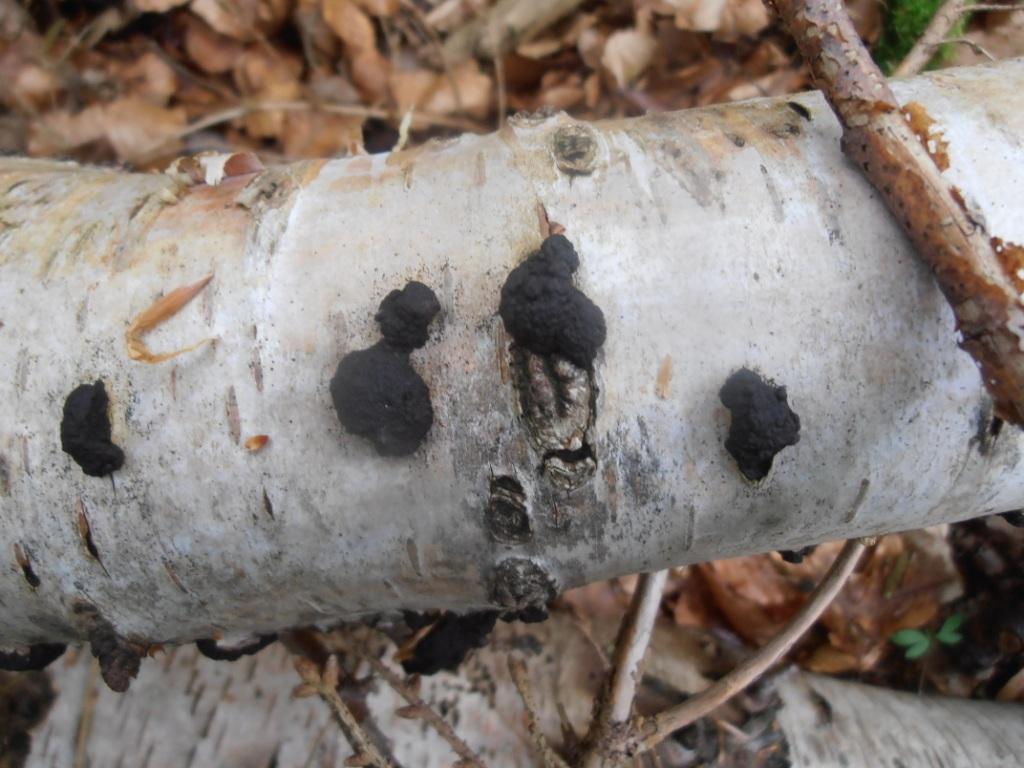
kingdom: Fungi
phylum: Ascomycota
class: Sordariomycetes
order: Xylariales
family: Hypoxylaceae
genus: Jackrogersella
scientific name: Jackrogersella multiformis
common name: foranderlig kulbær
